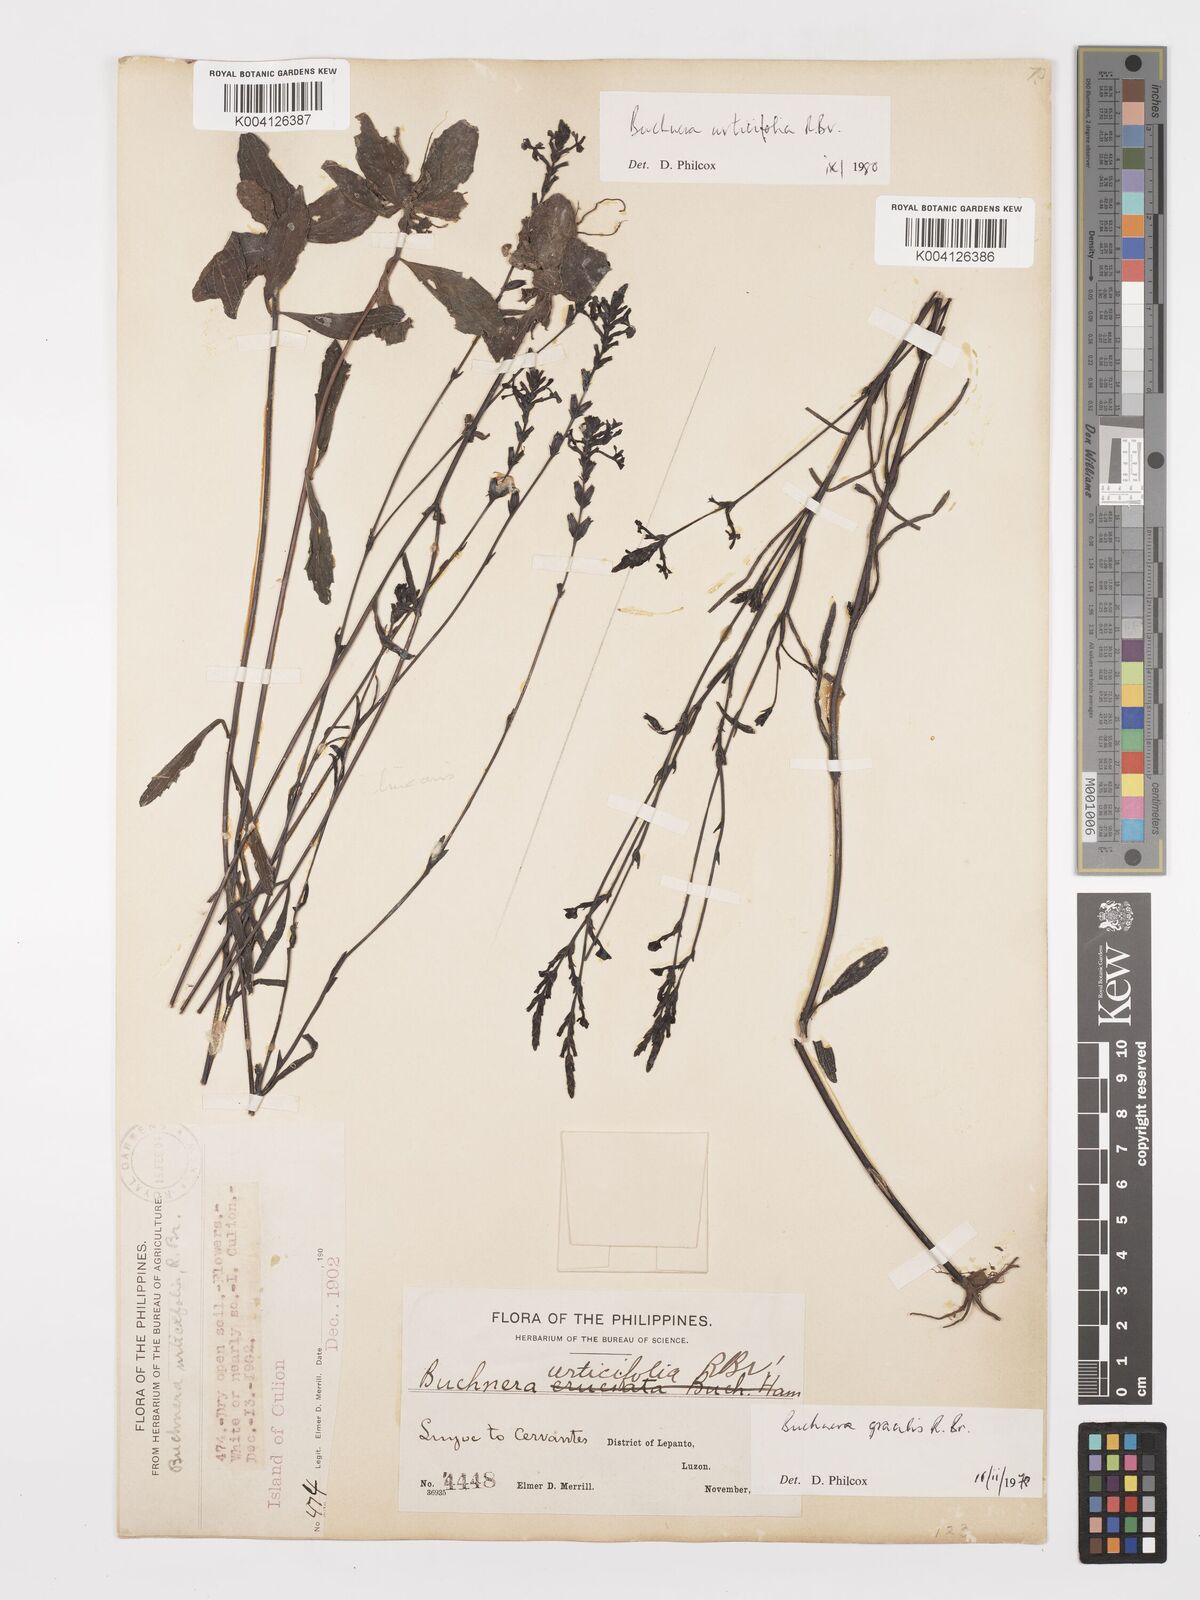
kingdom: Plantae
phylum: Tracheophyta
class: Magnoliopsida
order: Lamiales
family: Orobanchaceae
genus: Buchnera
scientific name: Buchnera gracilis
